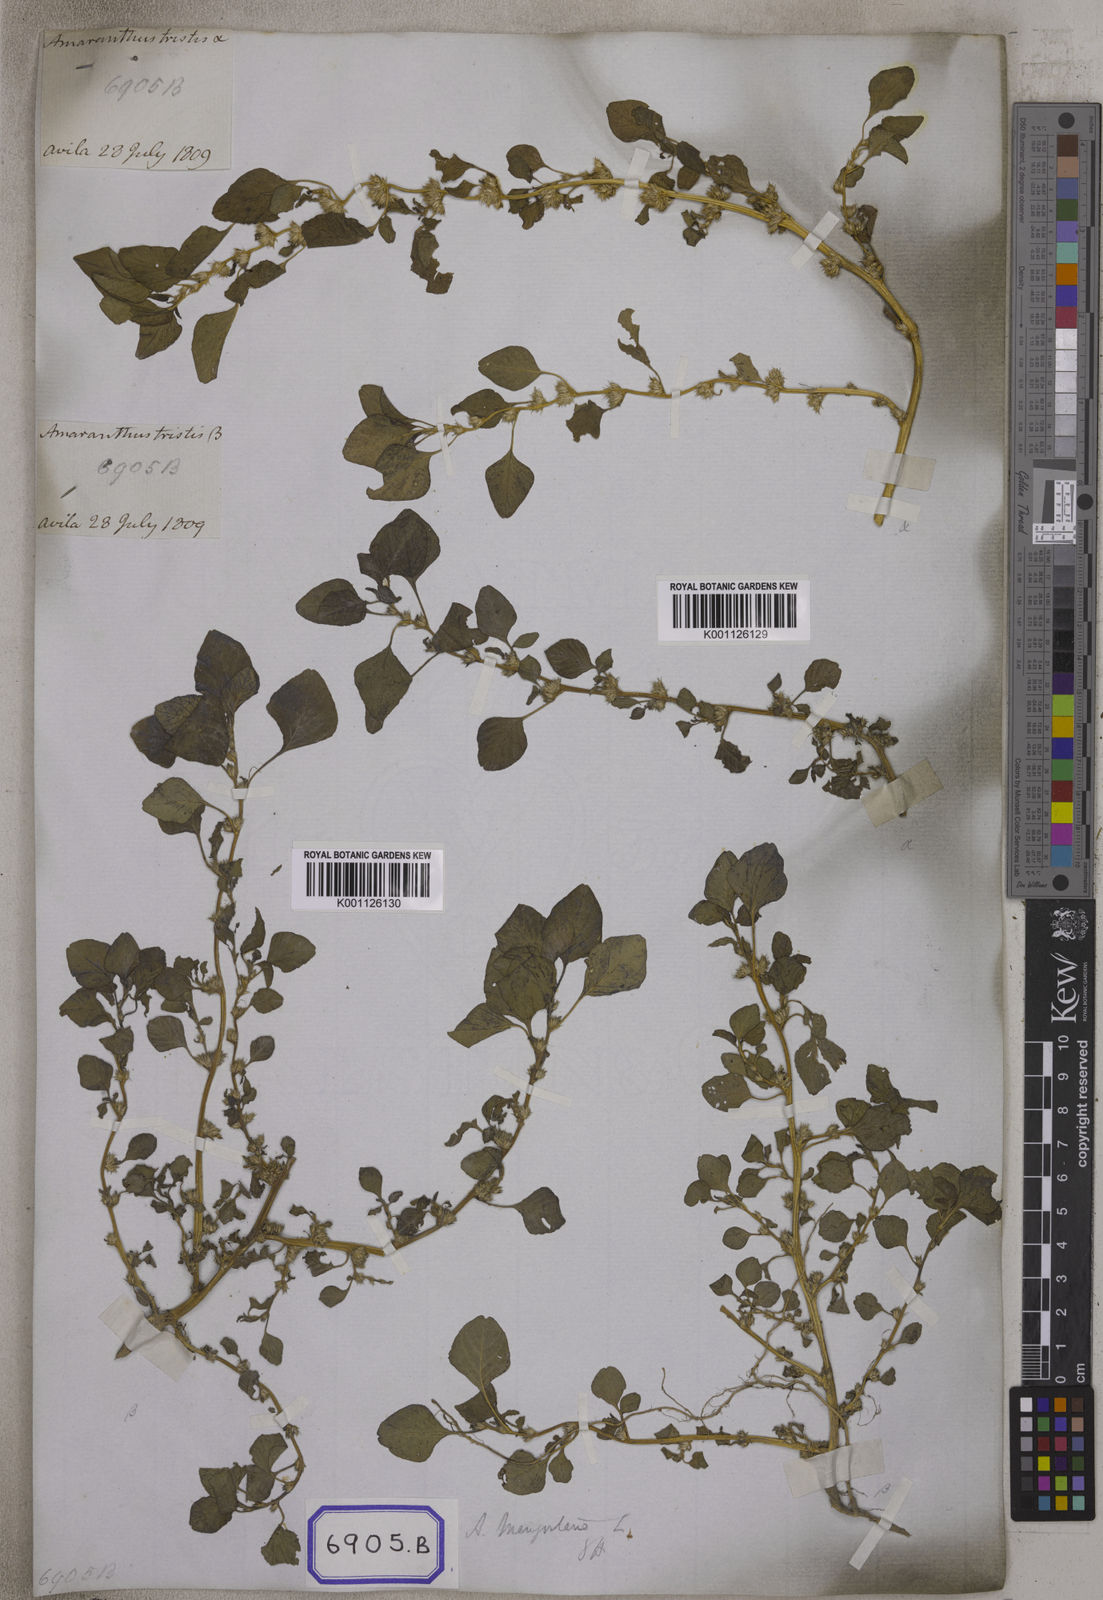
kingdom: Plantae
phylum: Tracheophyta
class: Magnoliopsida
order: Caryophyllales
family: Amaranthaceae
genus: Amaranthus
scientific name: Amaranthus
